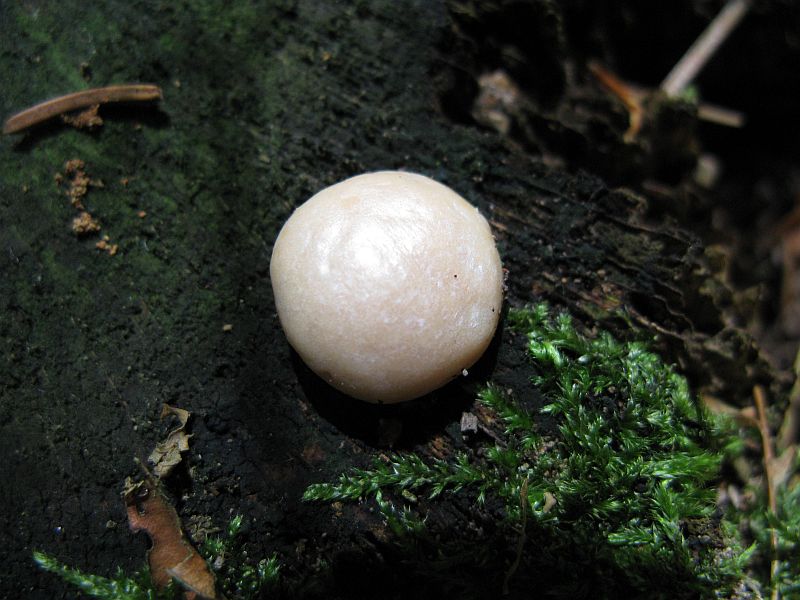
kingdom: Protozoa
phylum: Mycetozoa
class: Myxomycetes
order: Cribrariales
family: Tubiferaceae
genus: Reticularia
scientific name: Reticularia lycoperdon
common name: skinnende støvpude
